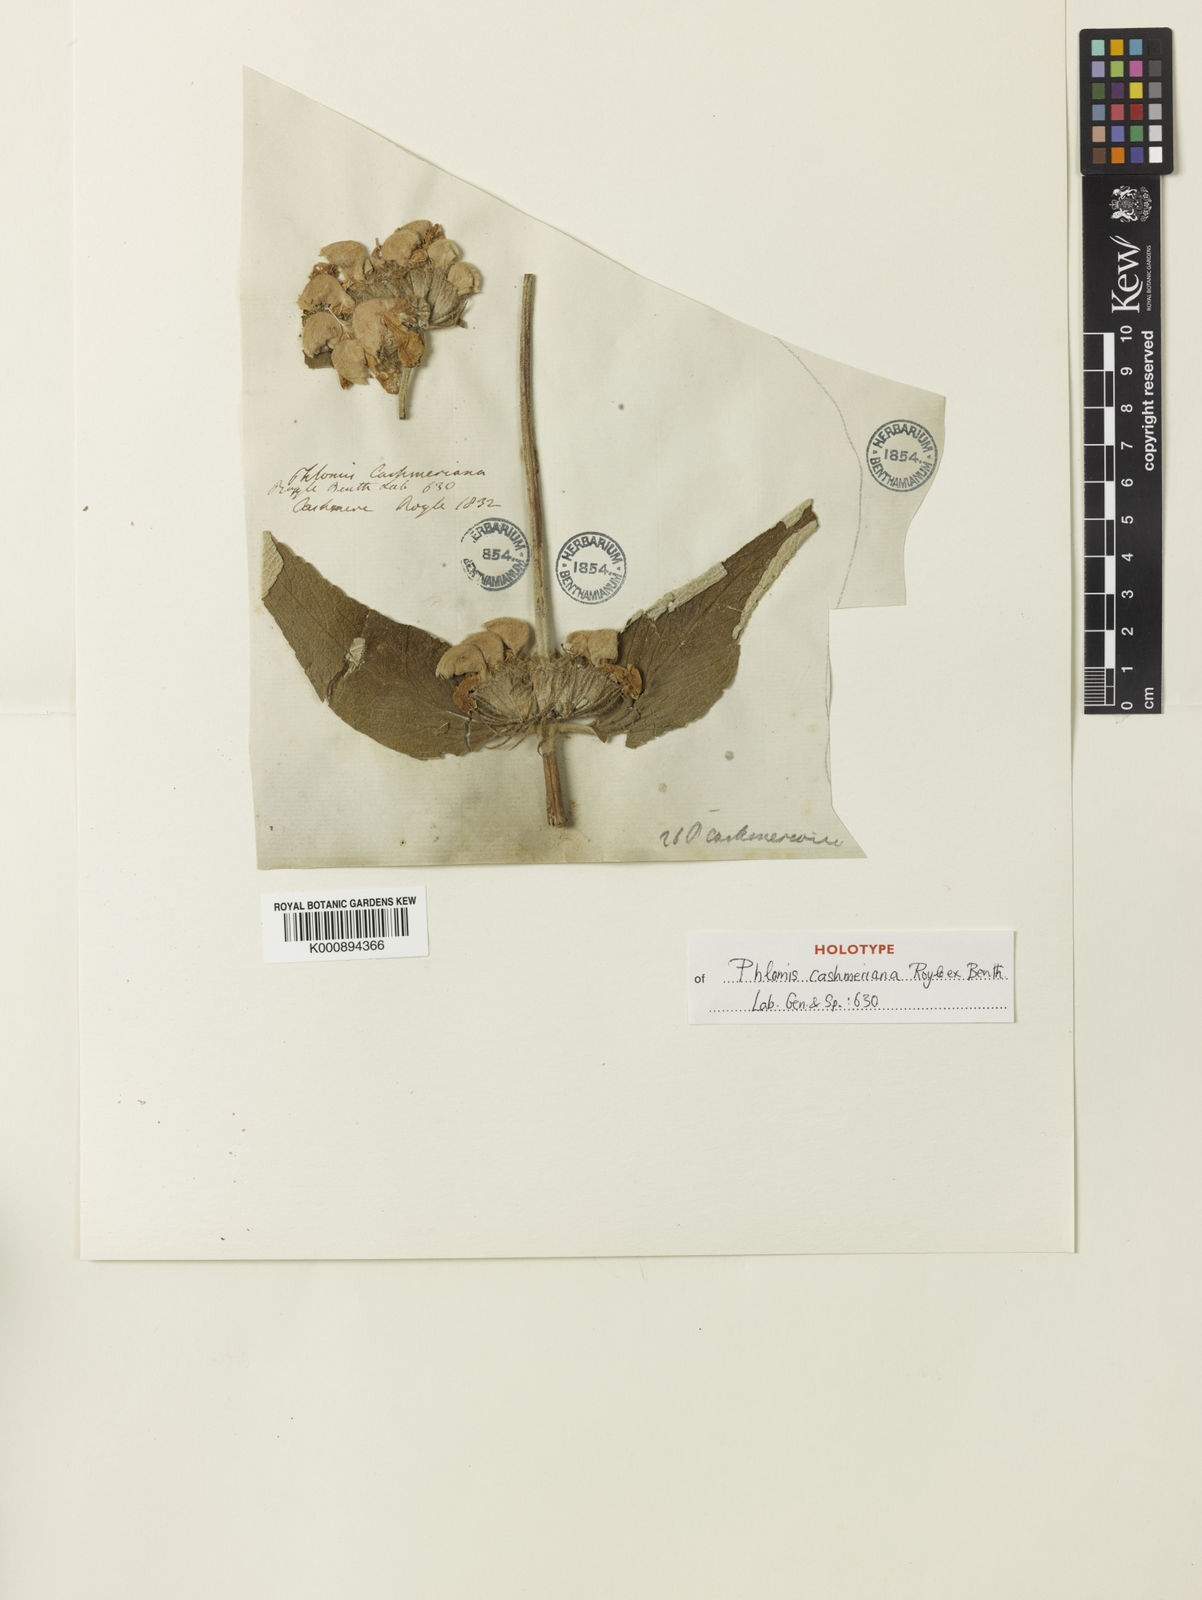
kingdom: Plantae
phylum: Tracheophyta
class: Magnoliopsida
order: Lamiales
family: Lamiaceae
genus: Phlomis
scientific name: Phlomis cashmeriana
